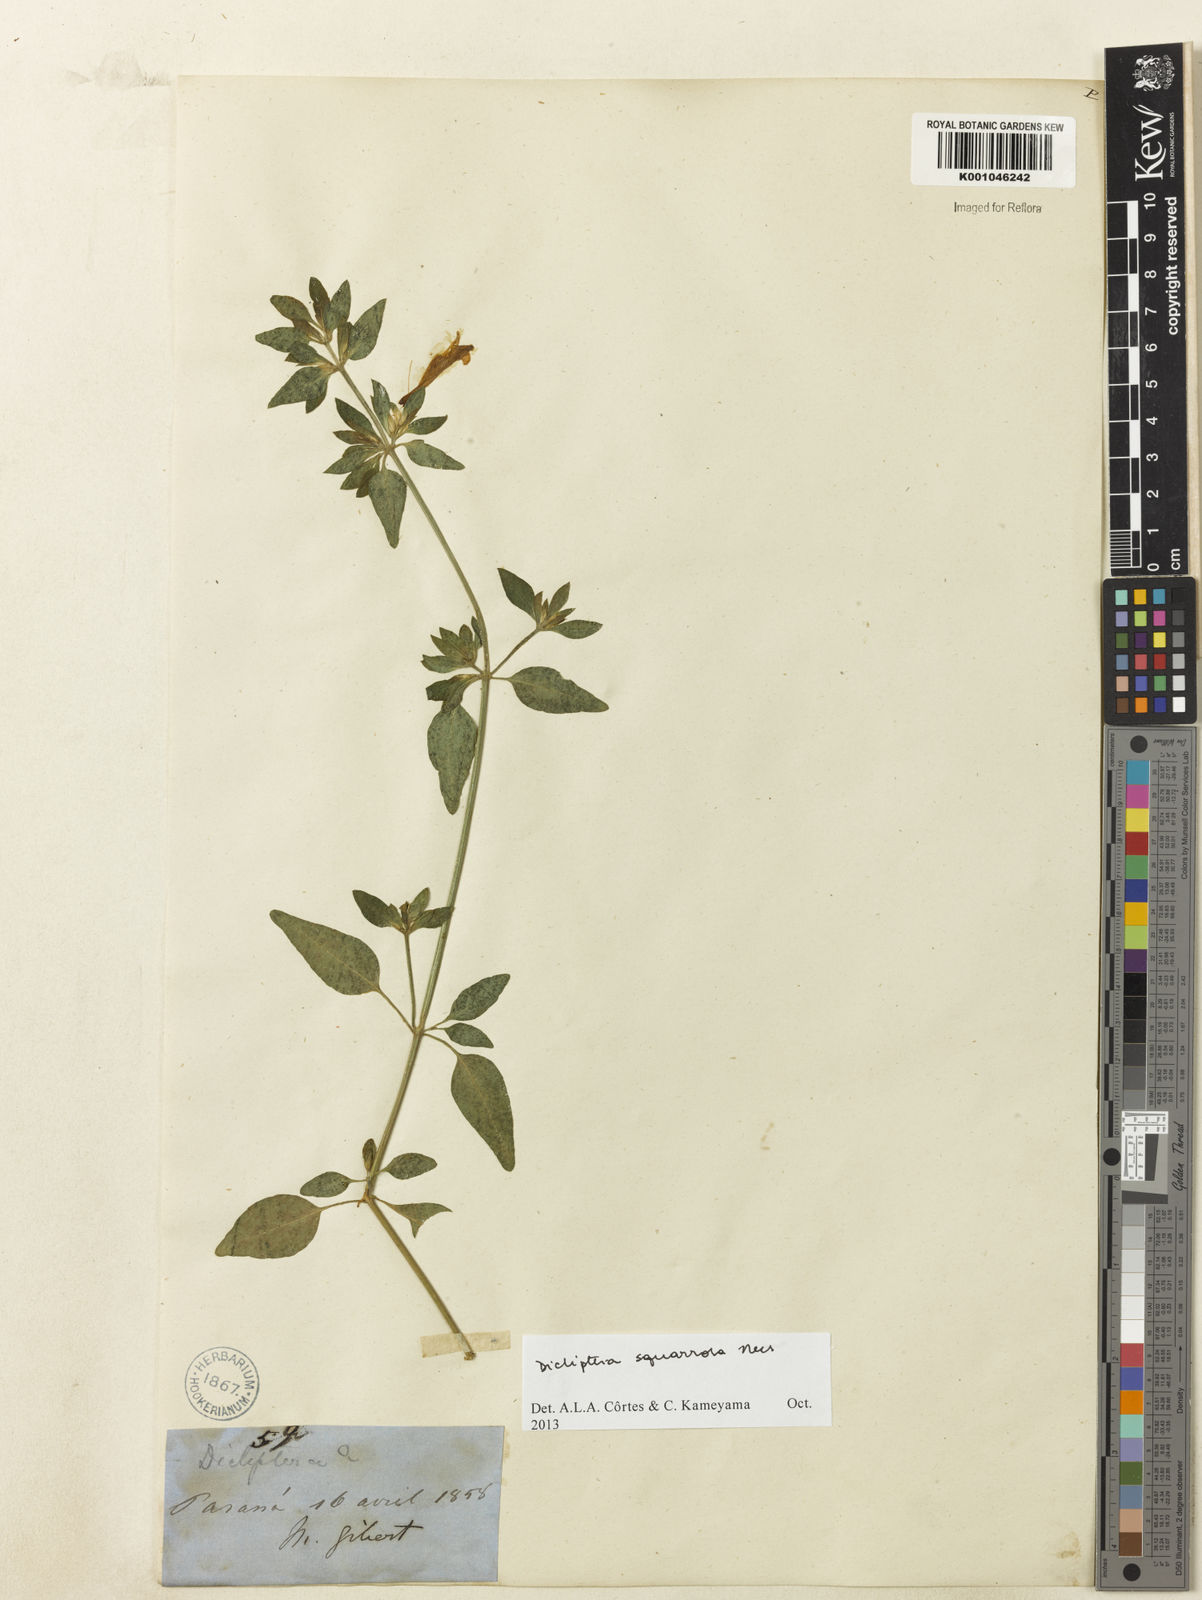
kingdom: Plantae
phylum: Tracheophyta
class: Magnoliopsida
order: Lamiales
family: Acanthaceae
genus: Dicliptera
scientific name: Dicliptera squarrosa
